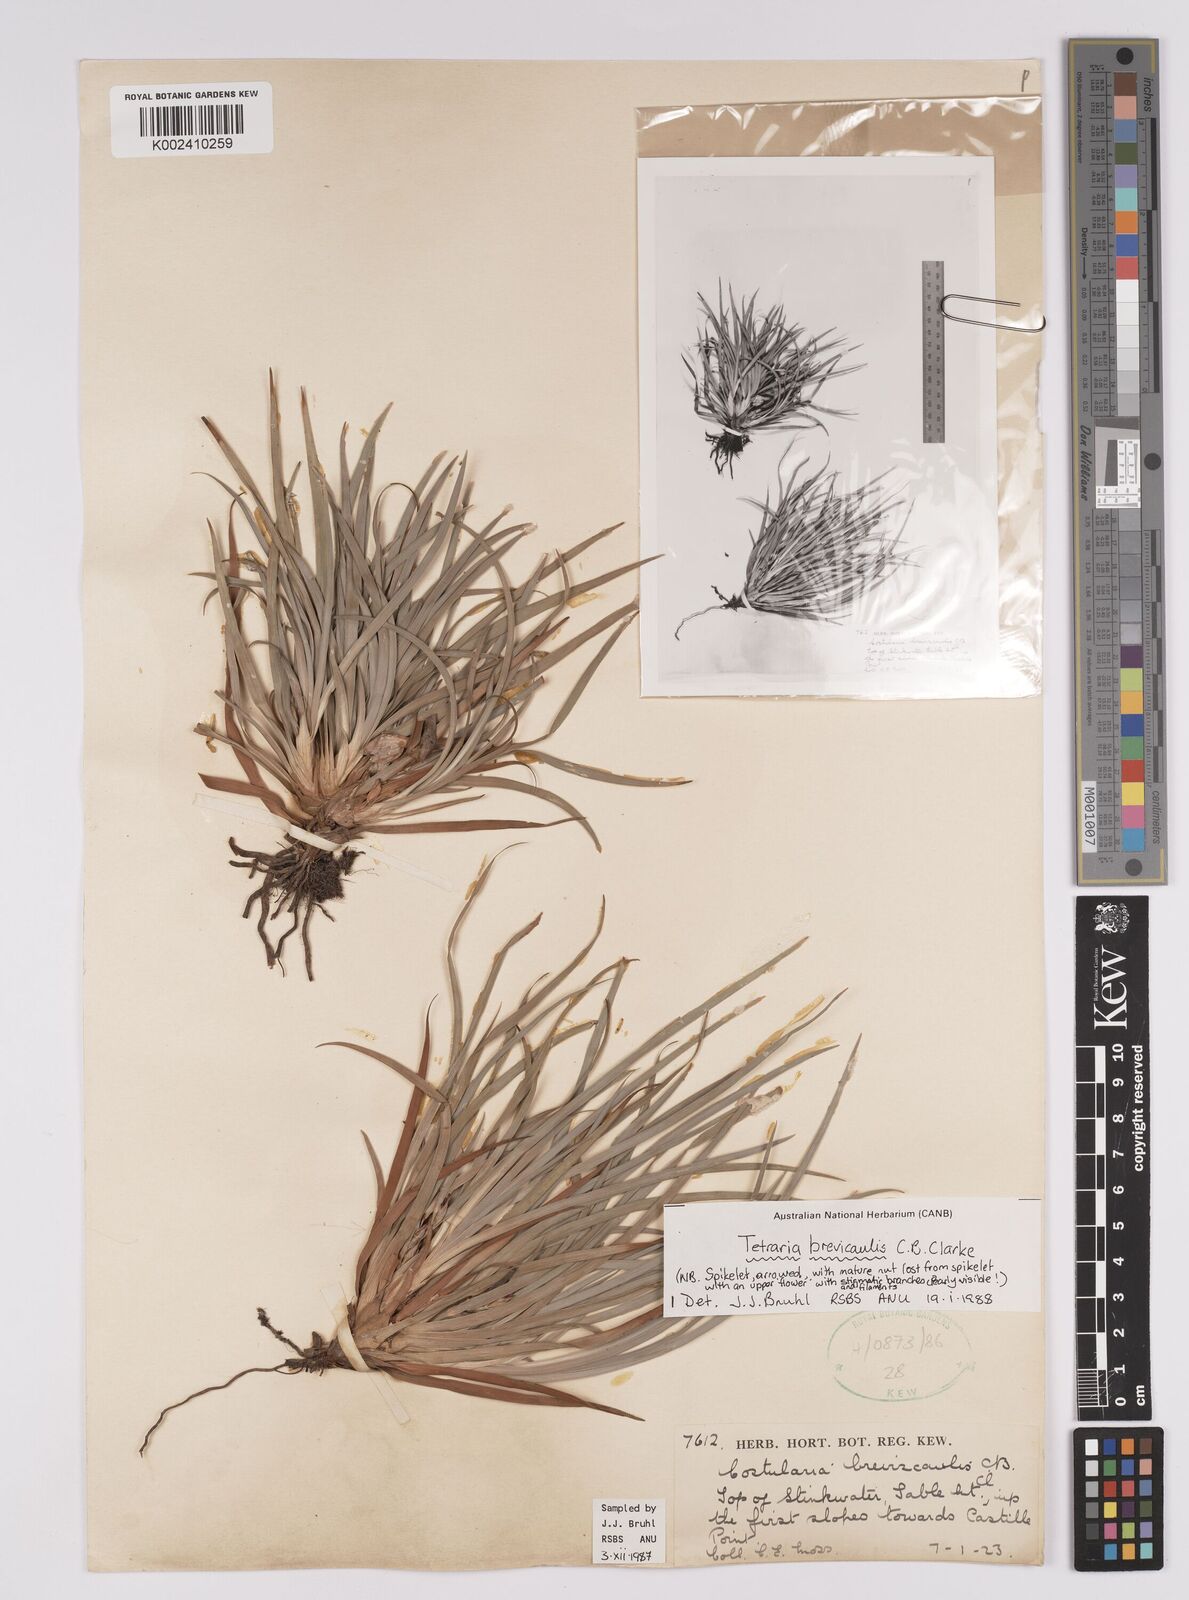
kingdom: Plantae
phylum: Tracheophyta
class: Liliopsida
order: Poales
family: Cyperaceae
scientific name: Cyperaceae
